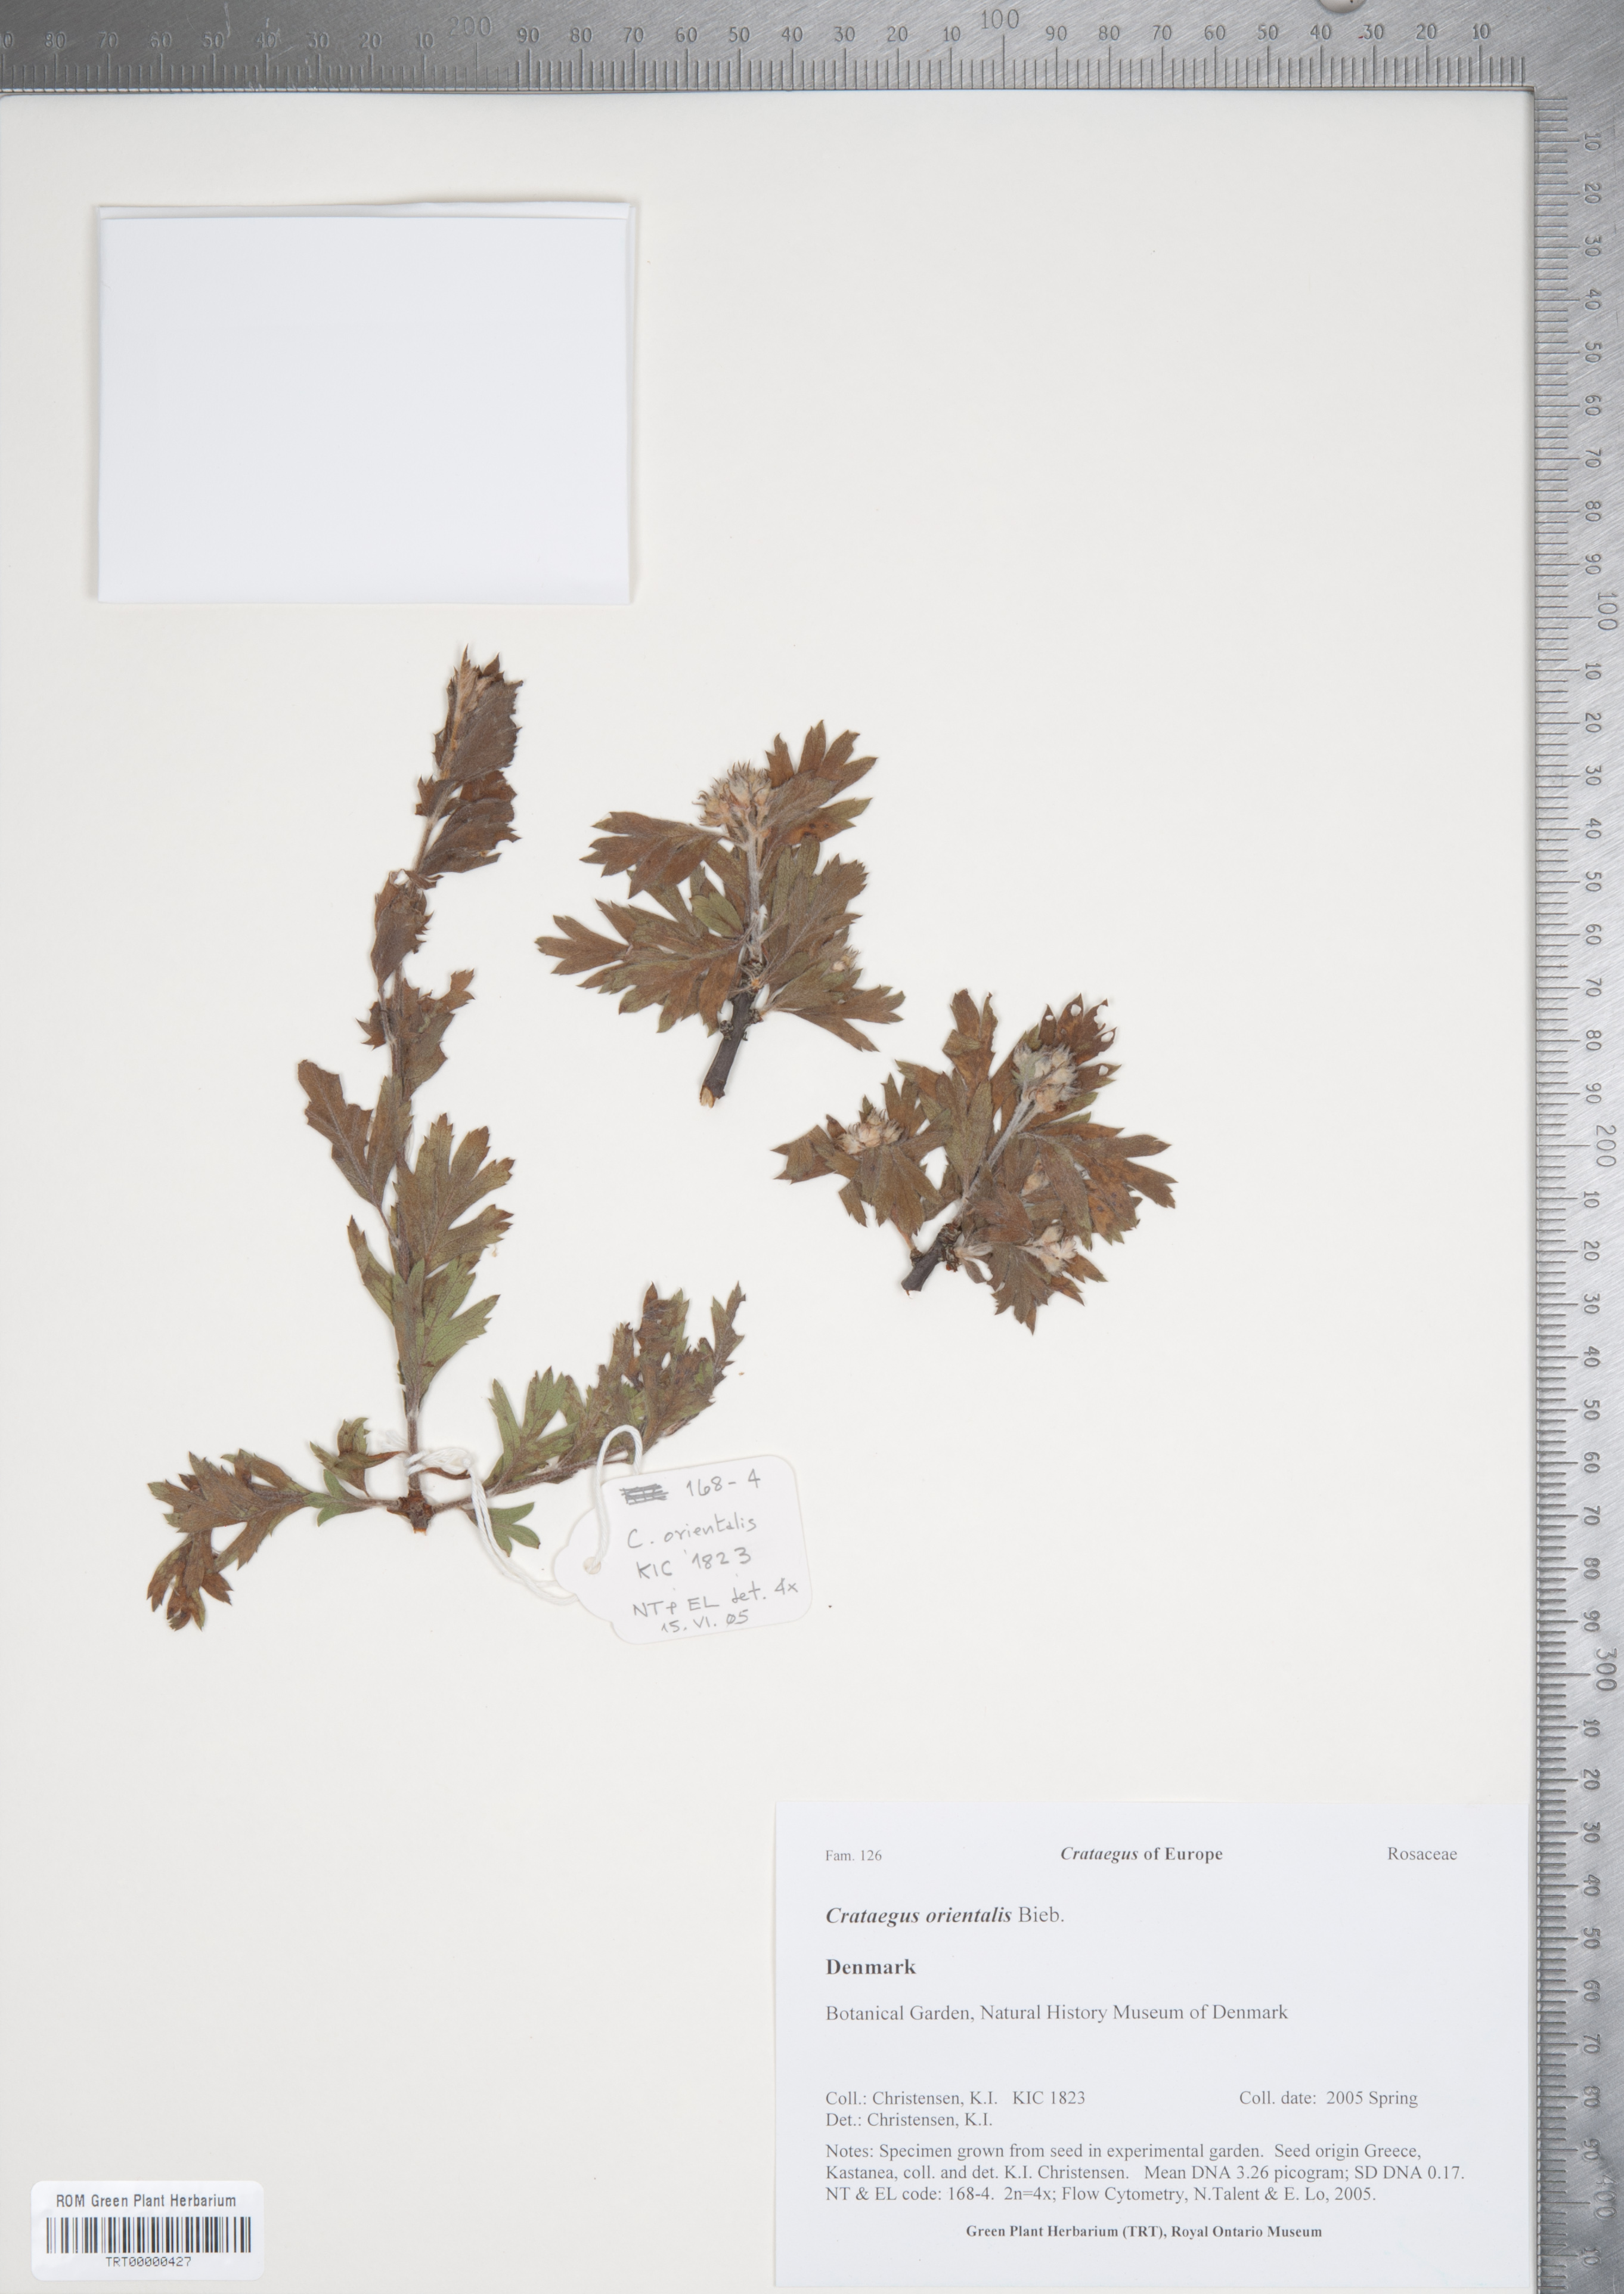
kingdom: Plantae
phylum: Tracheophyta
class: Magnoliopsida
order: Rosales
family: Rosaceae
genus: Crataegus
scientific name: Crataegus orientalis
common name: Oriental hawthorn
